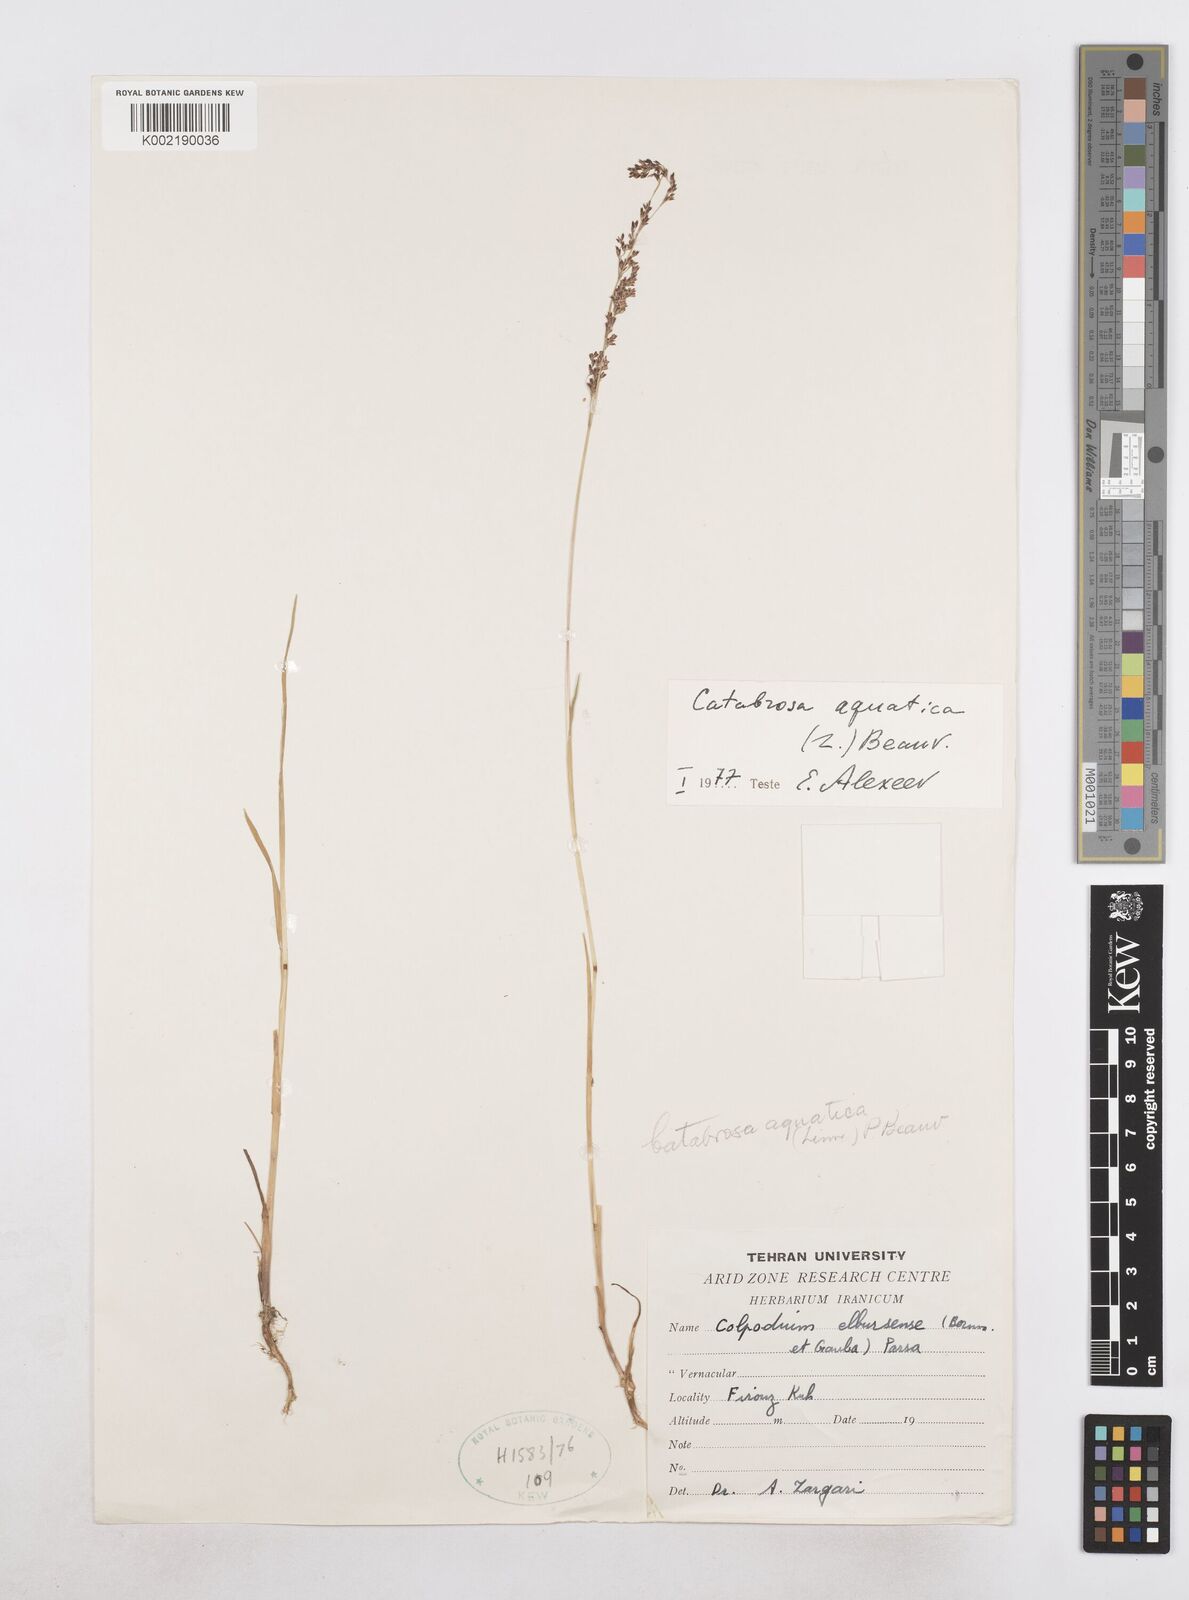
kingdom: Plantae
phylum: Tracheophyta
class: Liliopsida
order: Poales
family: Poaceae
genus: Catabrosa
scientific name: Catabrosa aquatica
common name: Whorl-grass
